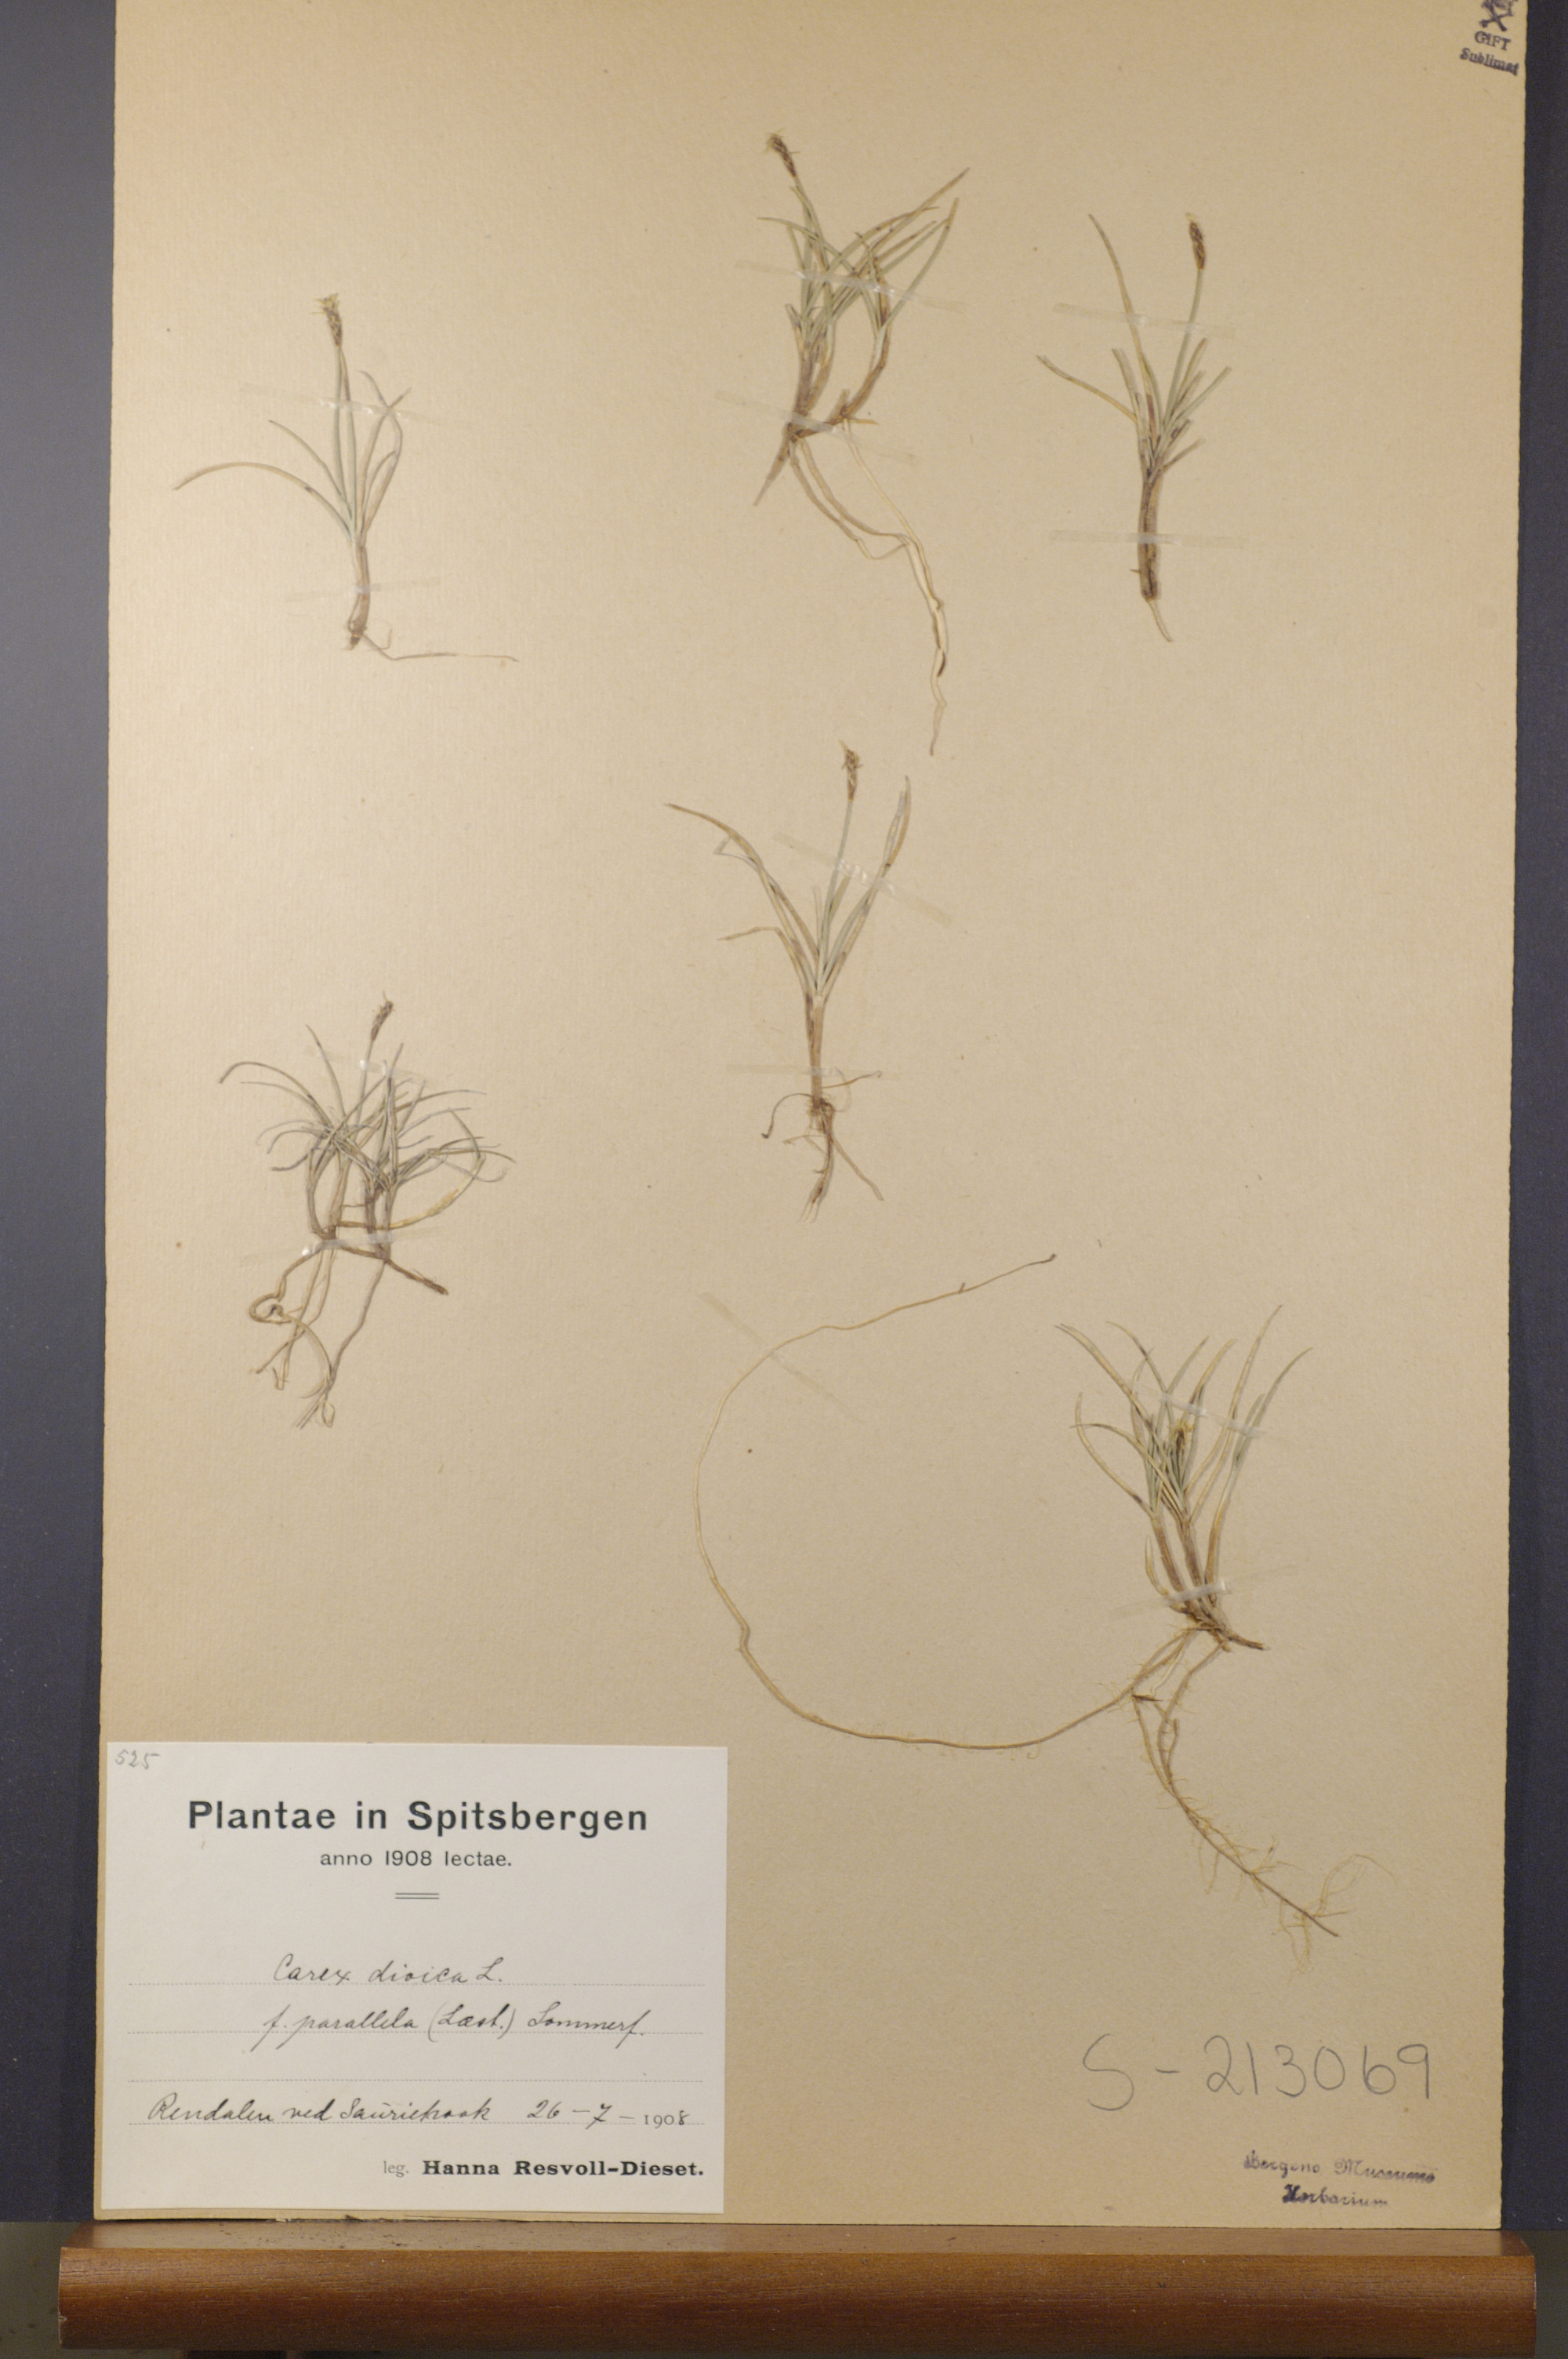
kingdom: Plantae
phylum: Tracheophyta
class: Liliopsida
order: Poales
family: Cyperaceae
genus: Carex
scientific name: Carex parallela
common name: Parallel sedge
